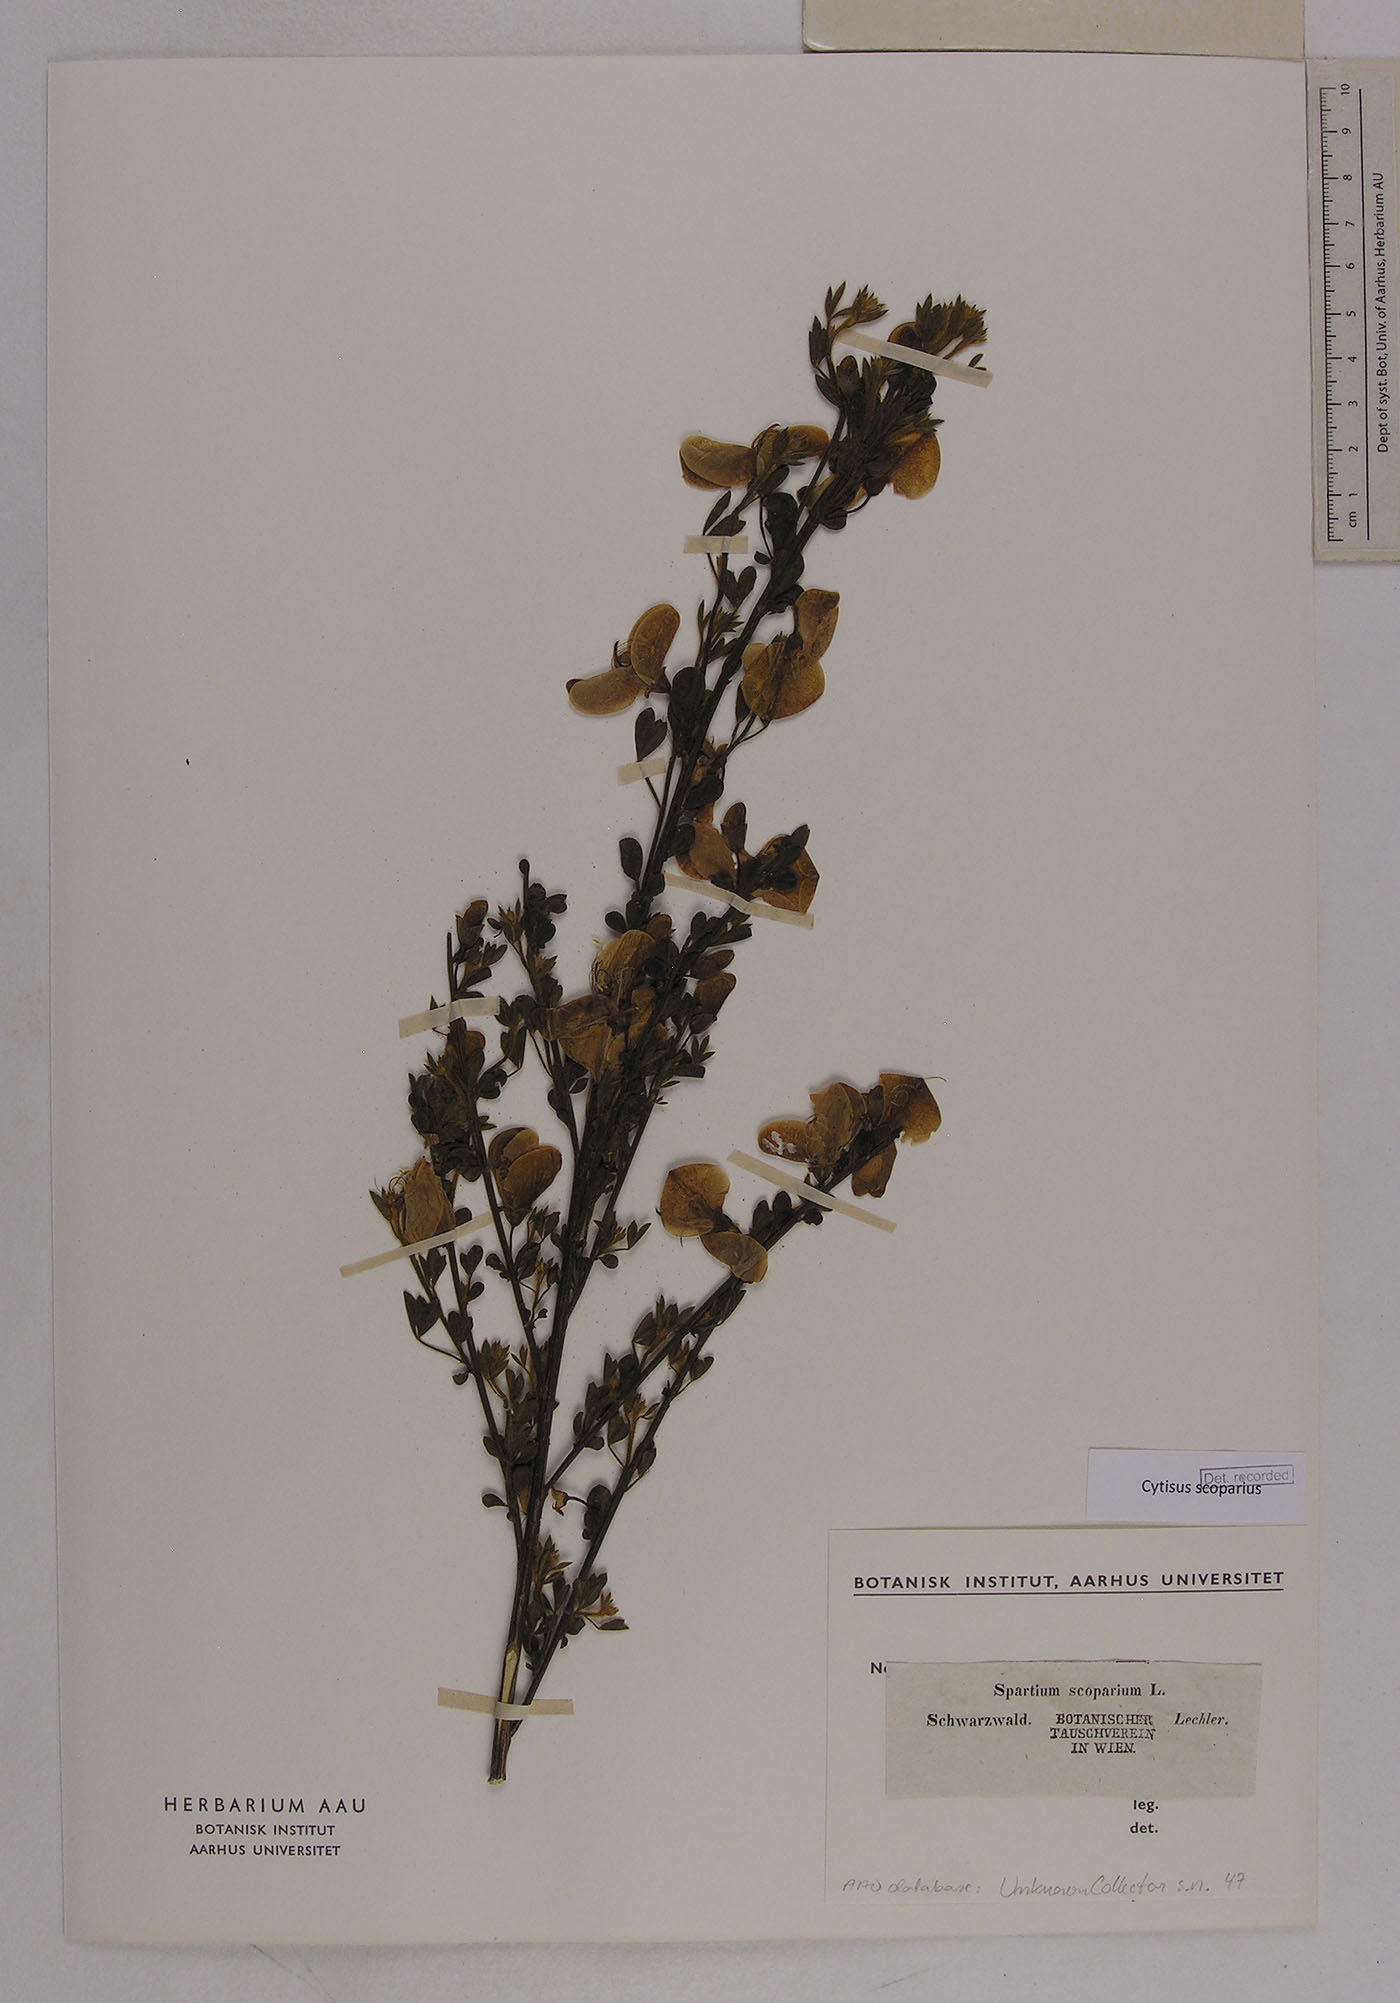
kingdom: Plantae
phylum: Tracheophyta
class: Magnoliopsida
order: Fabales
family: Fabaceae
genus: Cytisus
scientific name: Cytisus scoparius
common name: Scotch broom
